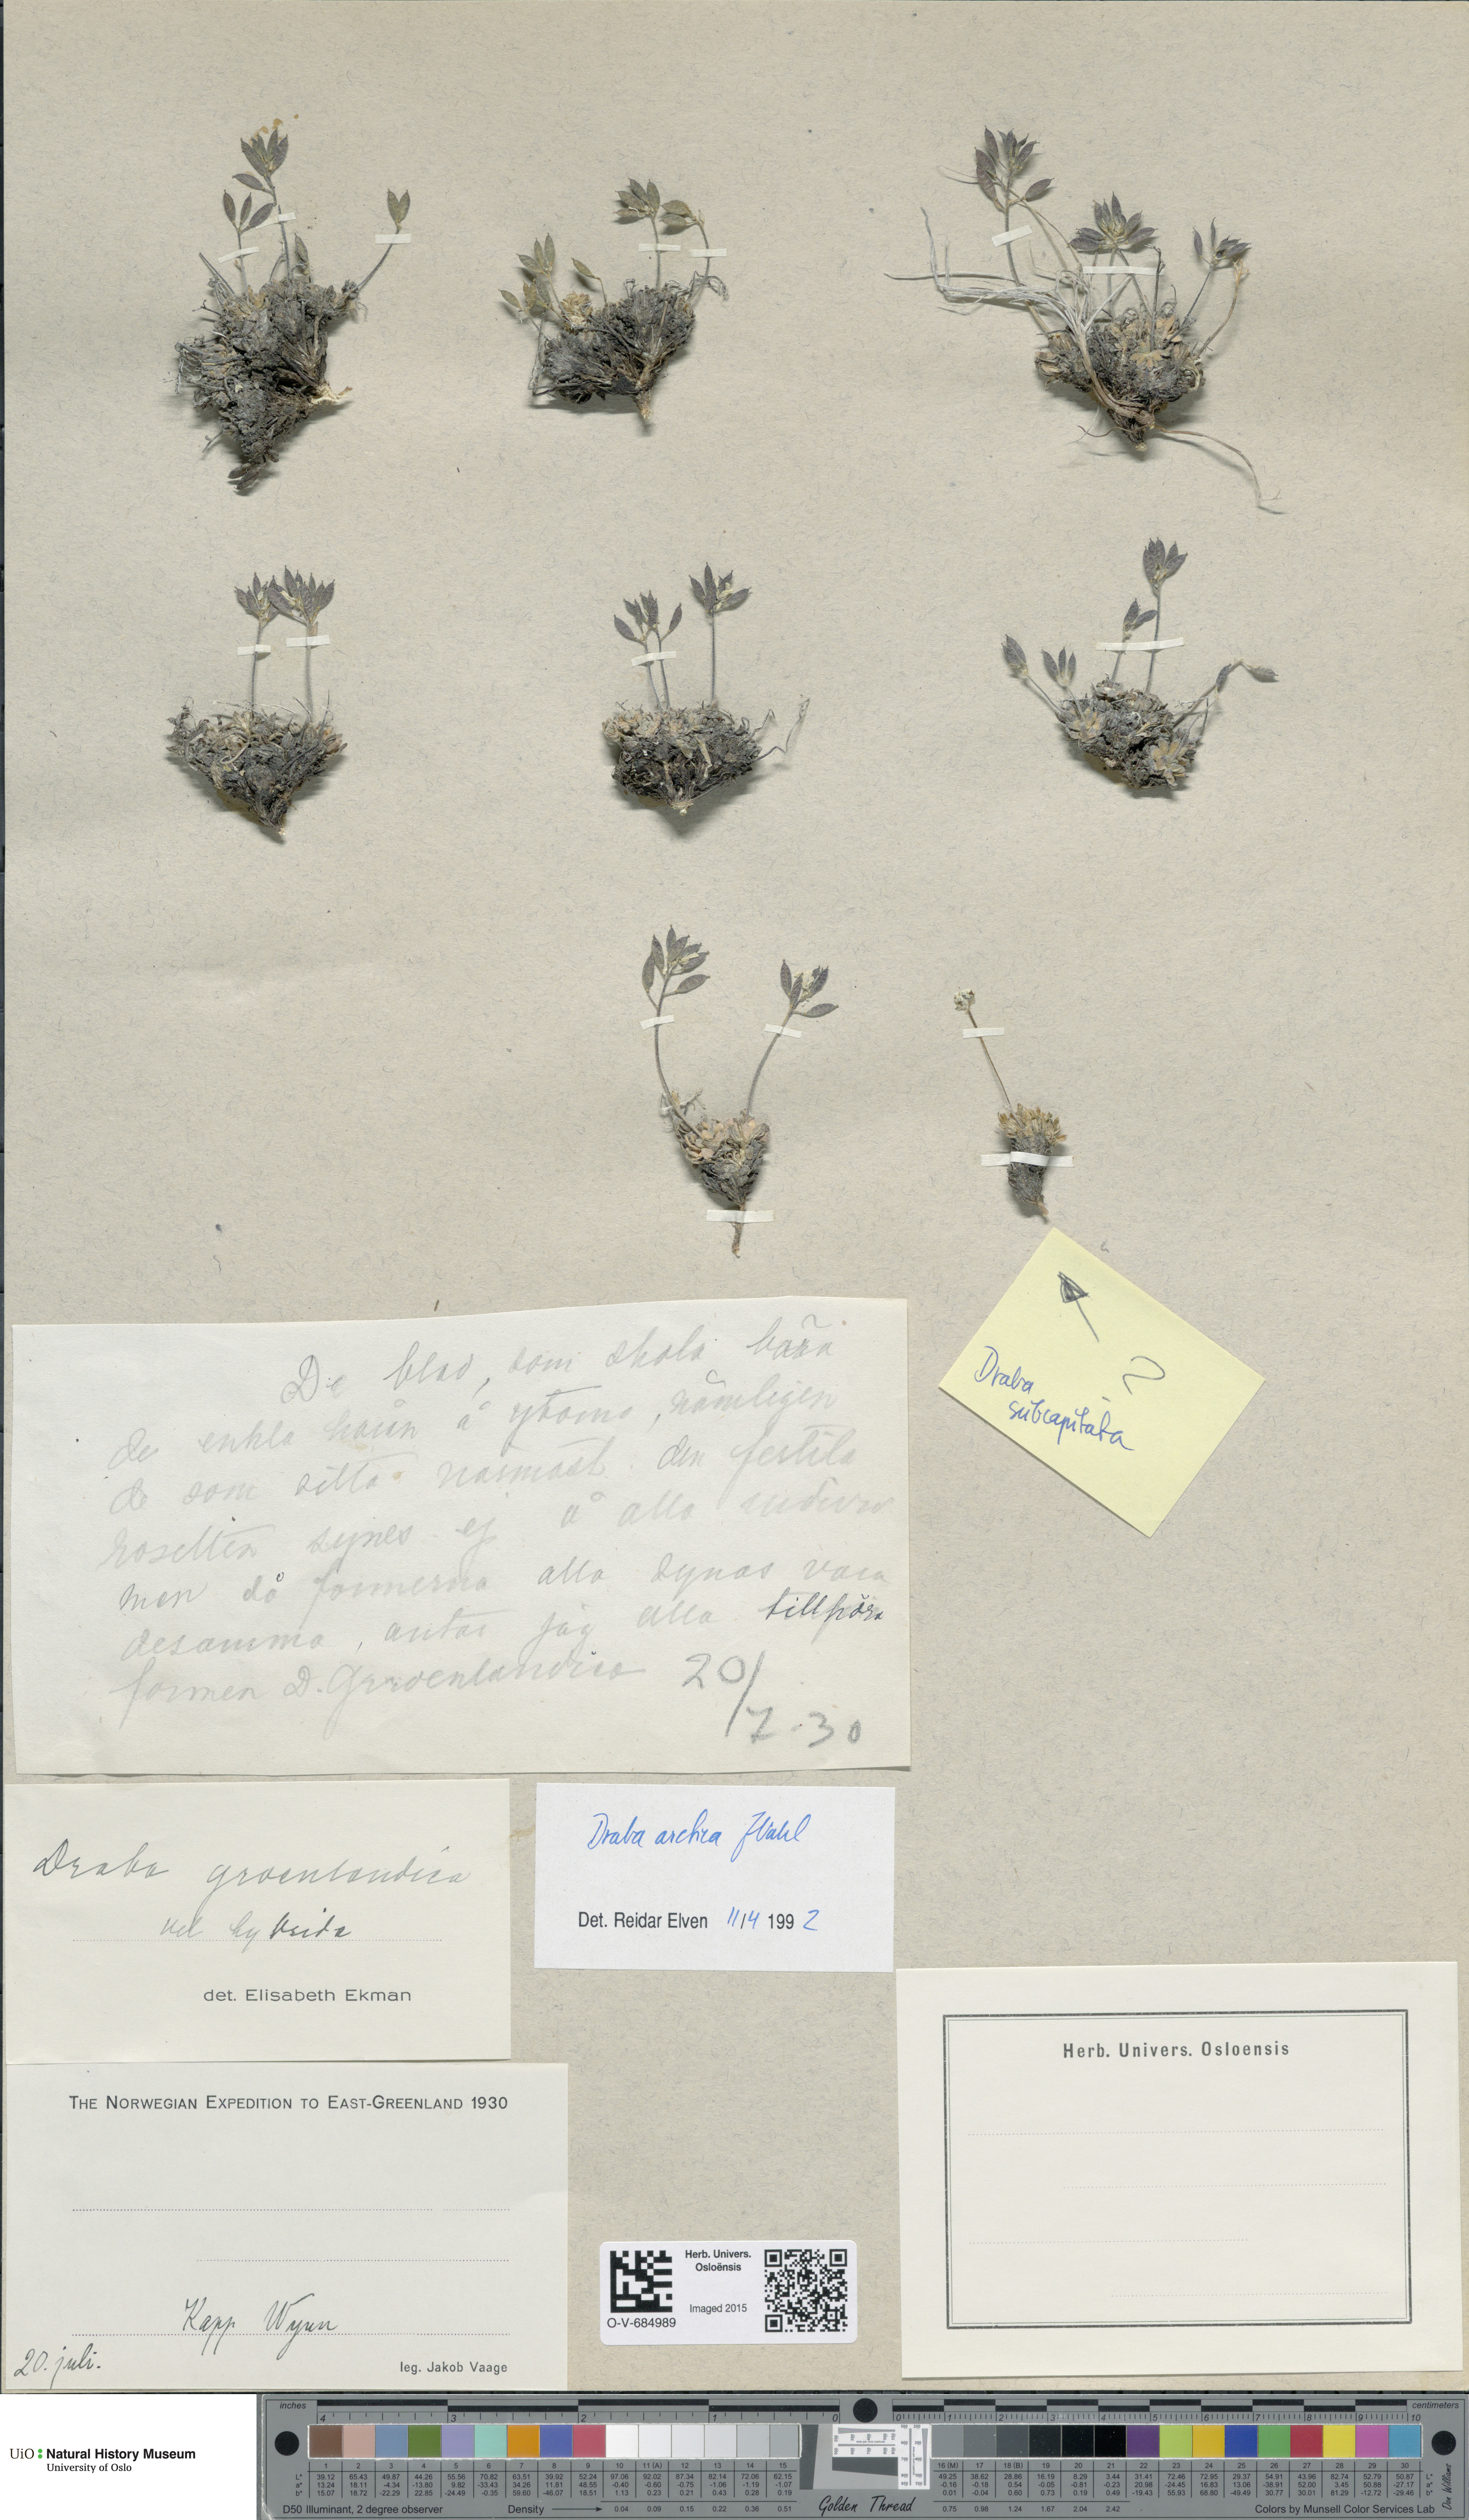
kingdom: Plantae
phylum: Tracheophyta
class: Magnoliopsida
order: Brassicales
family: Brassicaceae
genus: Draba
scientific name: Draba arctica
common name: Arctic draba
